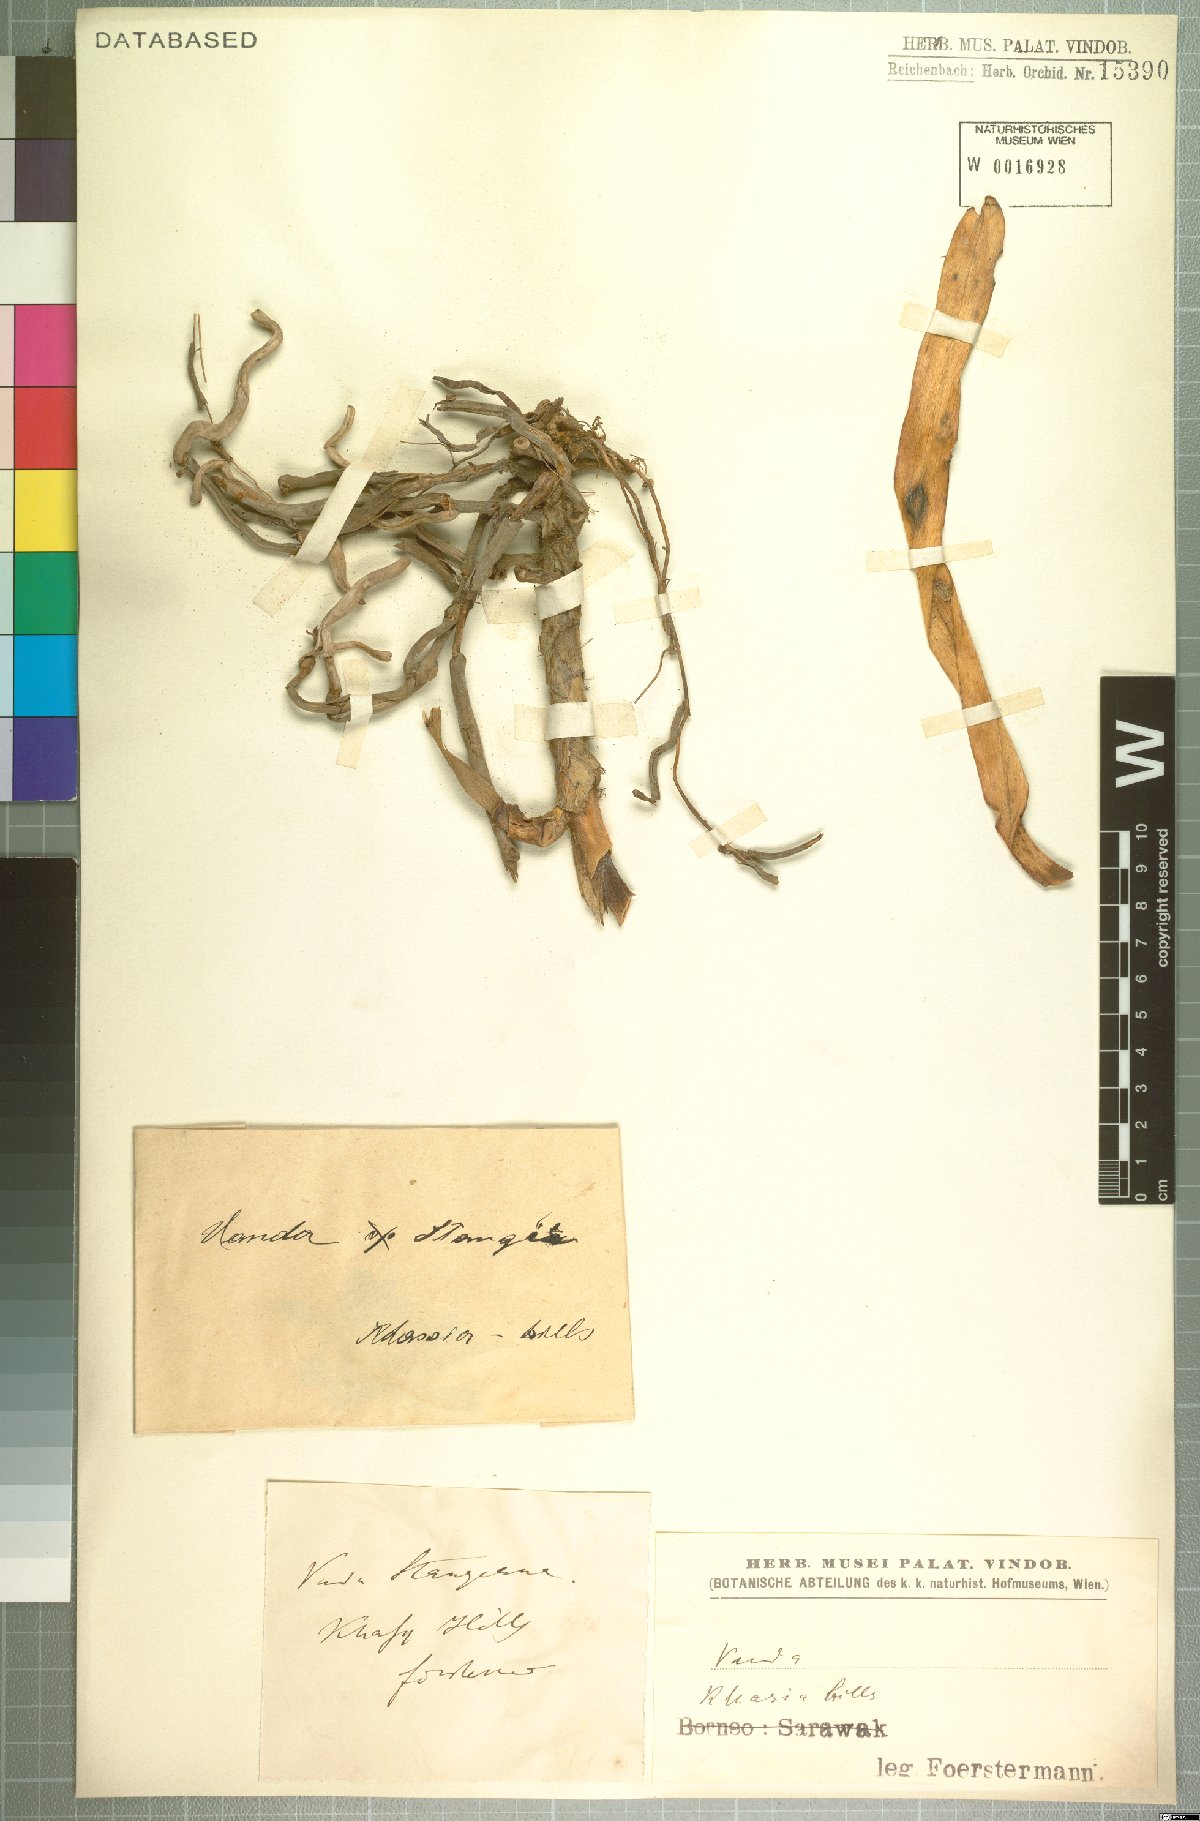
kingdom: Plantae
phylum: Tracheophyta
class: Liliopsida
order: Asparagales
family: Orchidaceae
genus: Vanda
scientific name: Vanda stangeana
